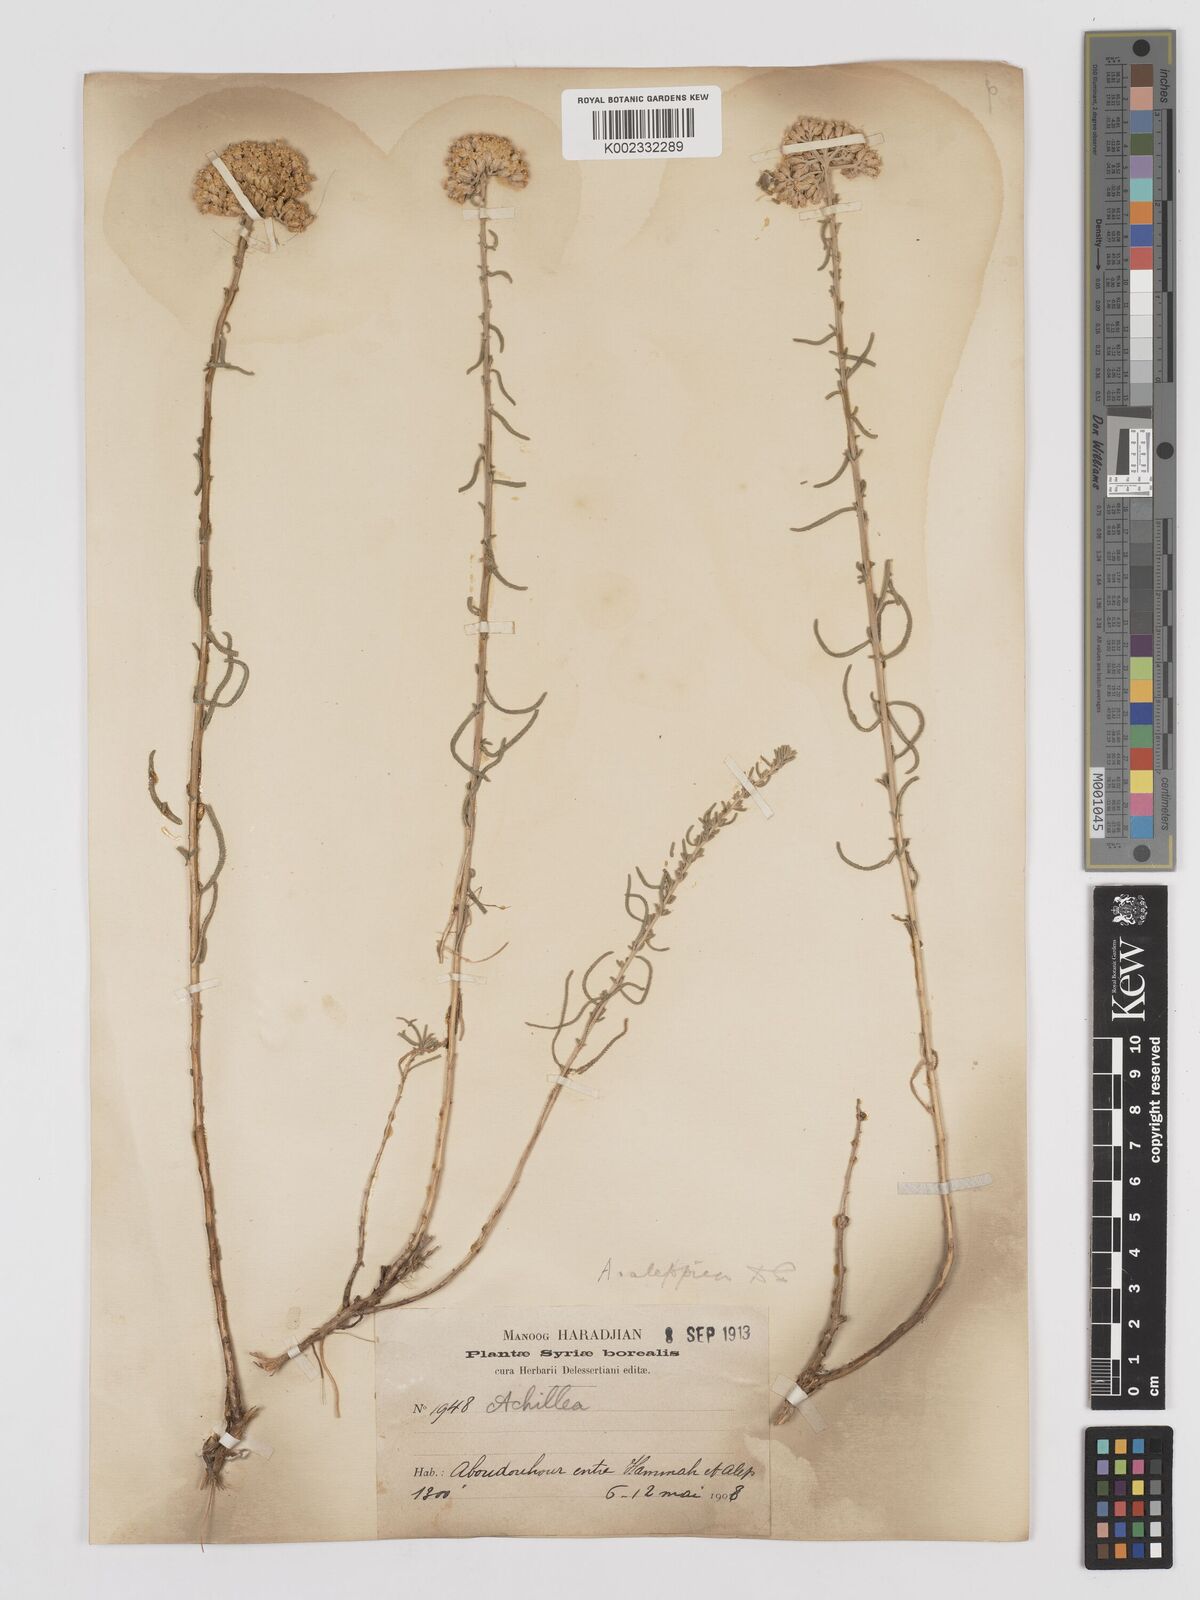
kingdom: Plantae
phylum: Tracheophyta
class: Magnoliopsida
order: Asterales
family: Asteraceae
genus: Achillea
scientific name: Achillea aleppica
